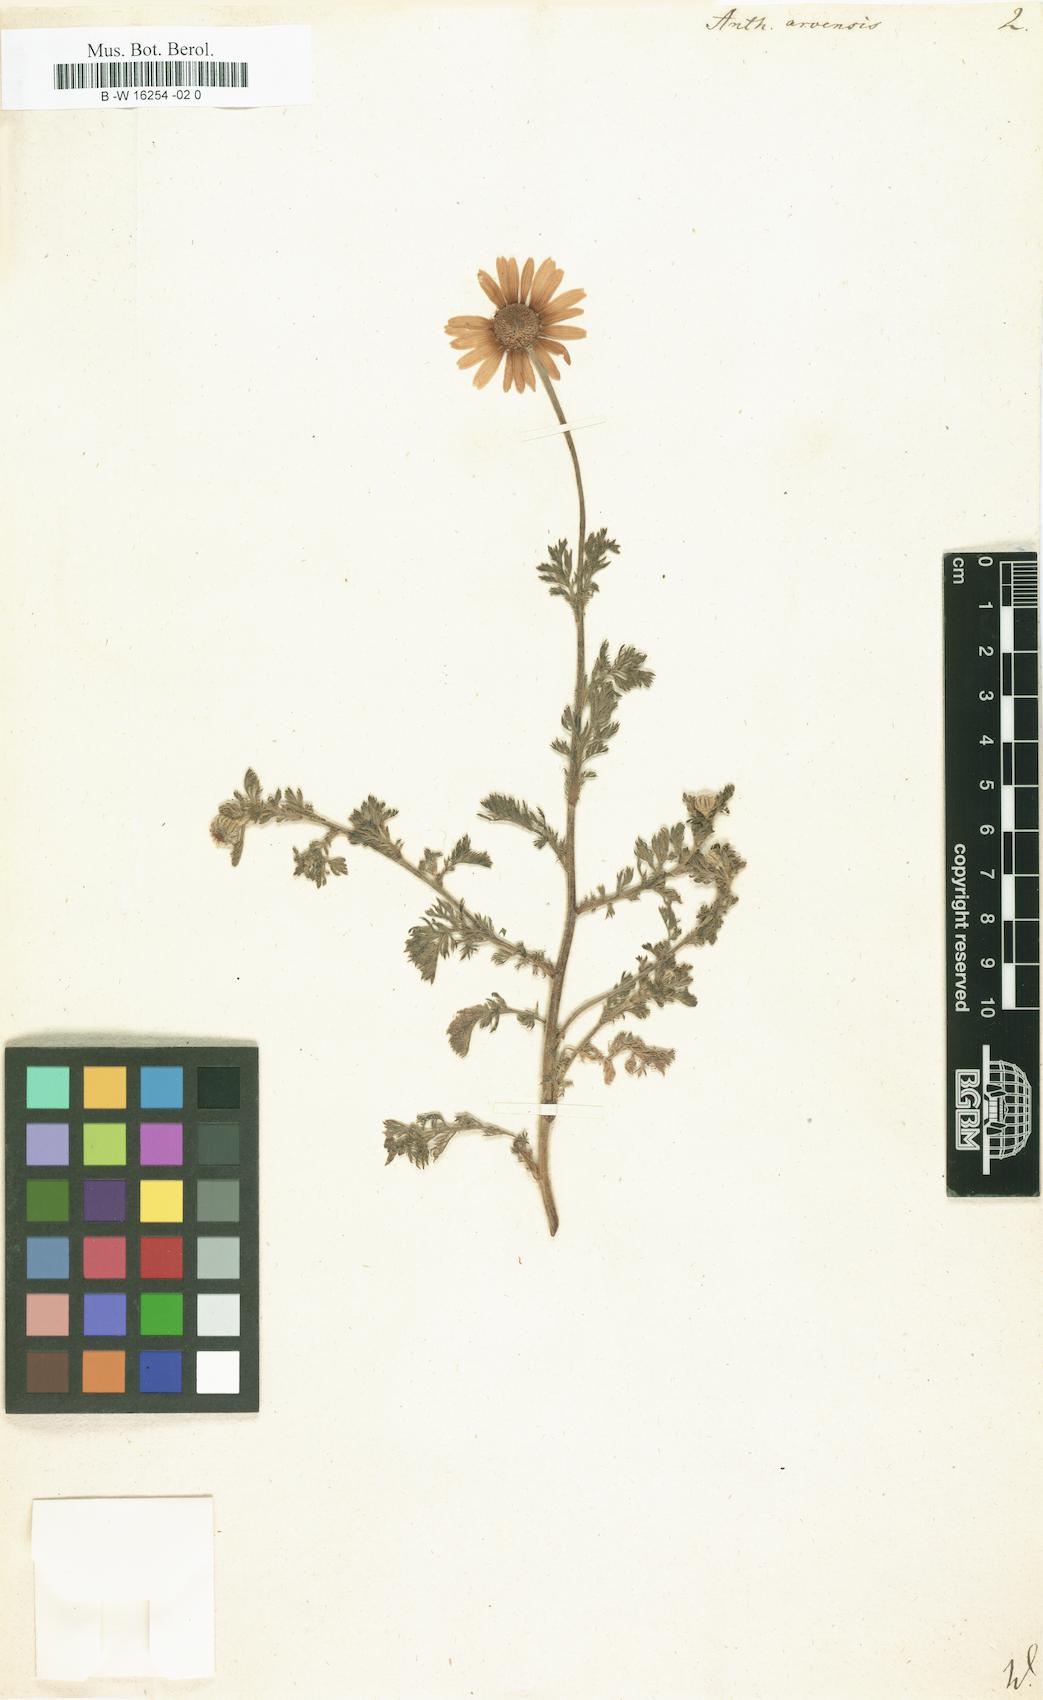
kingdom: Plantae
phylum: Tracheophyta
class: Magnoliopsida
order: Asterales
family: Asteraceae
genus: Anthemis
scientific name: Anthemis arvensis
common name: Corn chamomile
